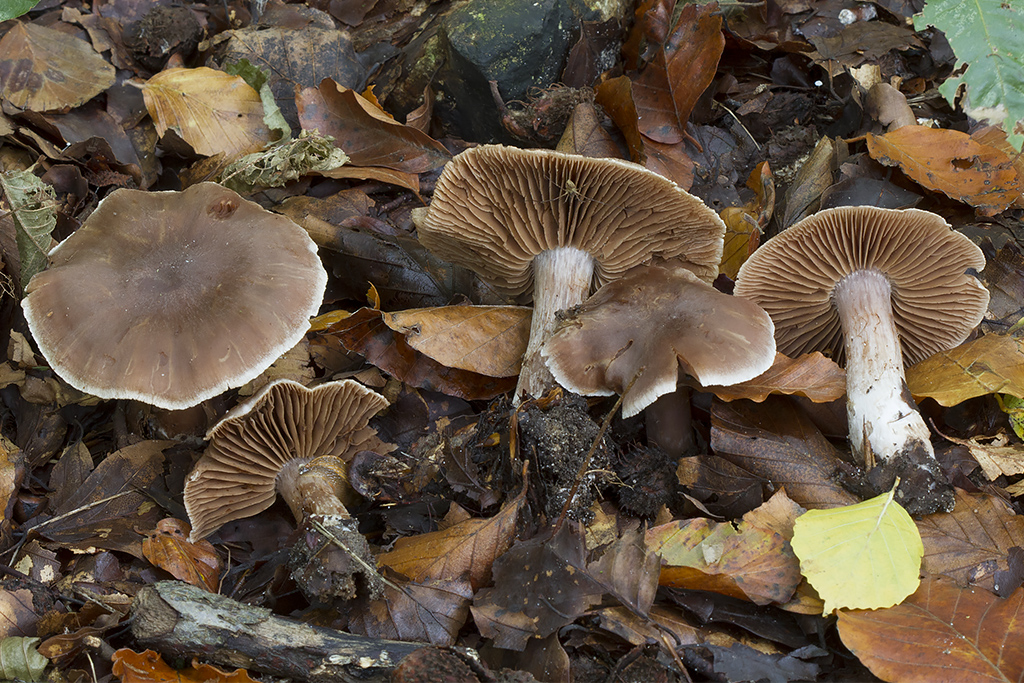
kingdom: Fungi
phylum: Basidiomycota
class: Agaricomycetes
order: Agaricales
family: Cortinariaceae
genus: Cortinarius
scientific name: Cortinarius phaeosmus
